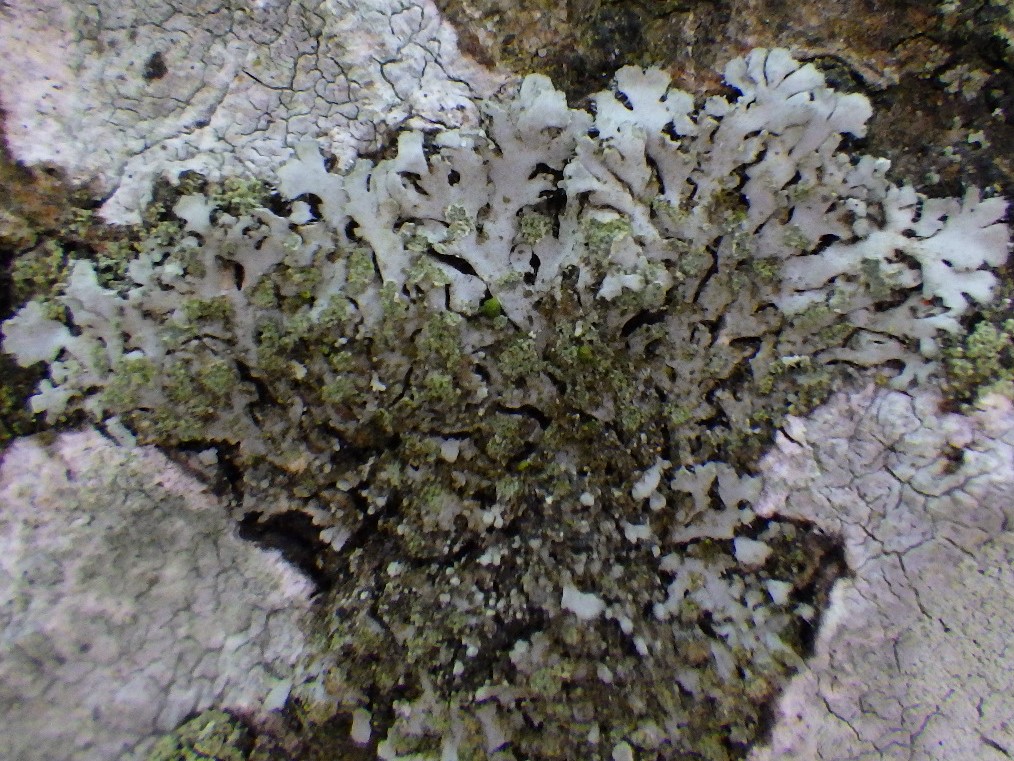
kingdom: Fungi
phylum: Ascomycota
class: Lecanoromycetes
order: Caliciales
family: Physciaceae
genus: Phaeophyscia
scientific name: Phaeophyscia orbicularis
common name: grågrøn rosetlav
